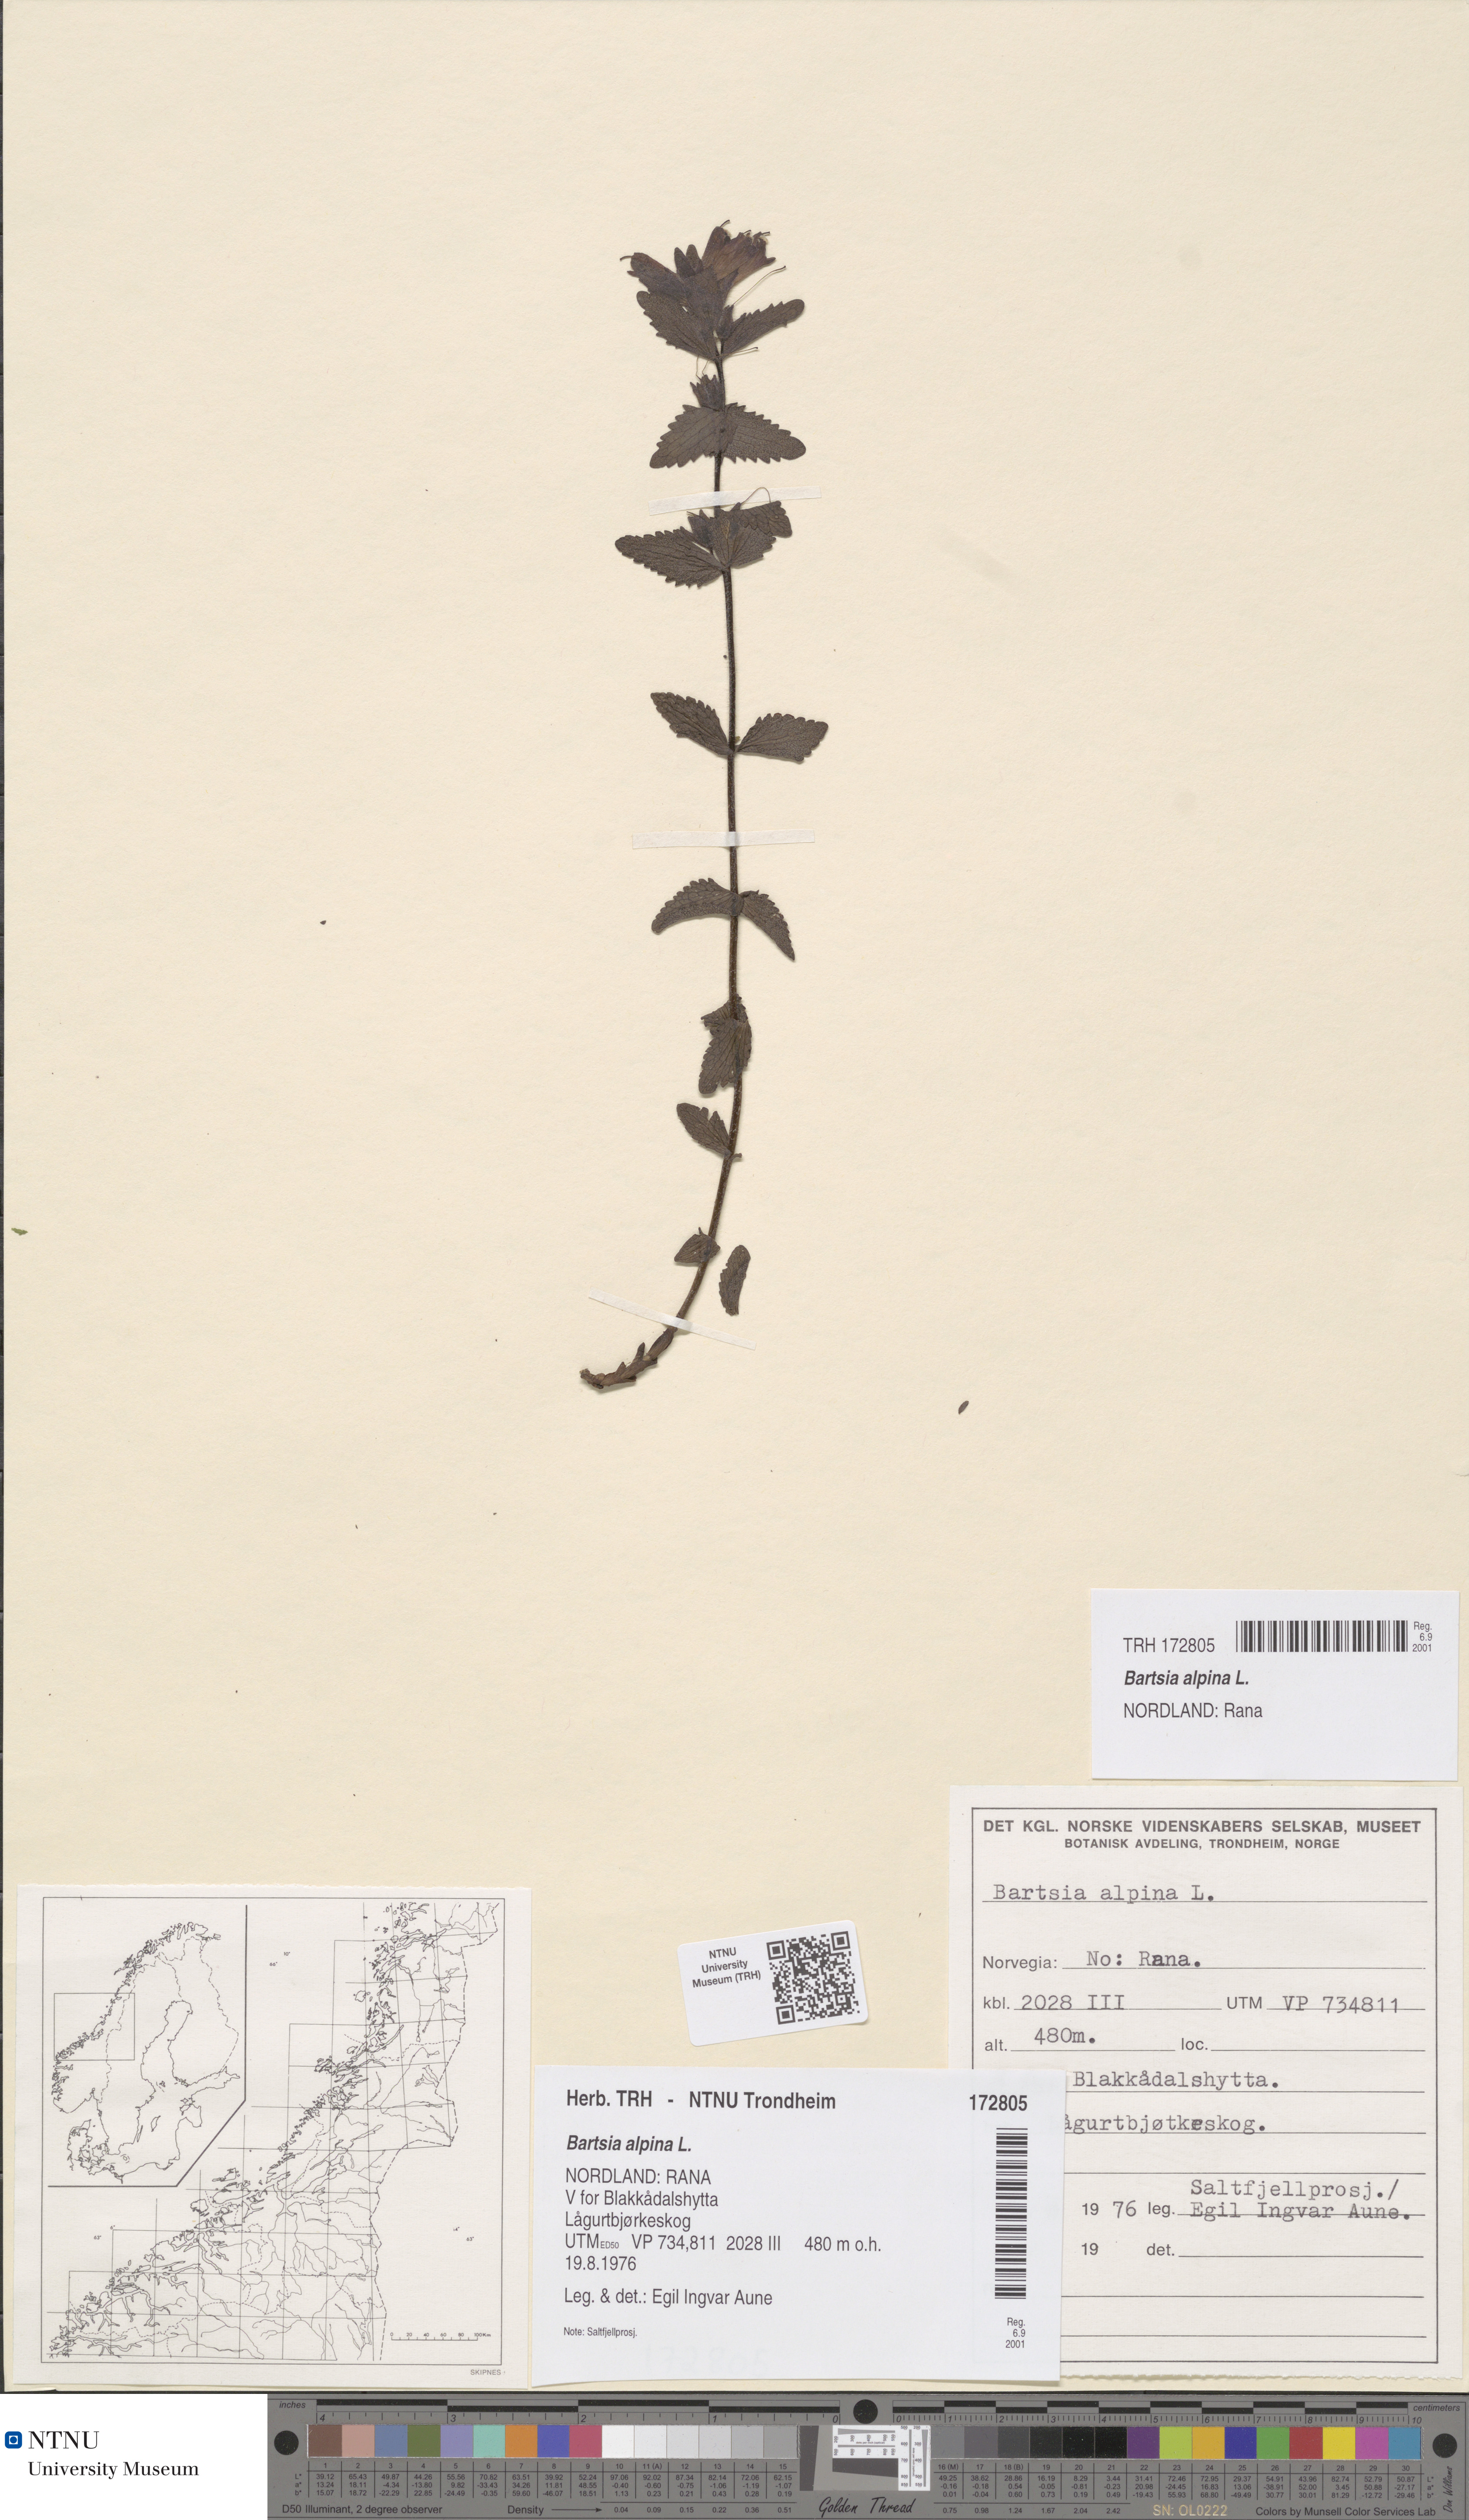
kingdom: Plantae
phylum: Tracheophyta
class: Magnoliopsida
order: Lamiales
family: Orobanchaceae
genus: Bartsia
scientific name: Bartsia alpina
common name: Alpine bartsia
